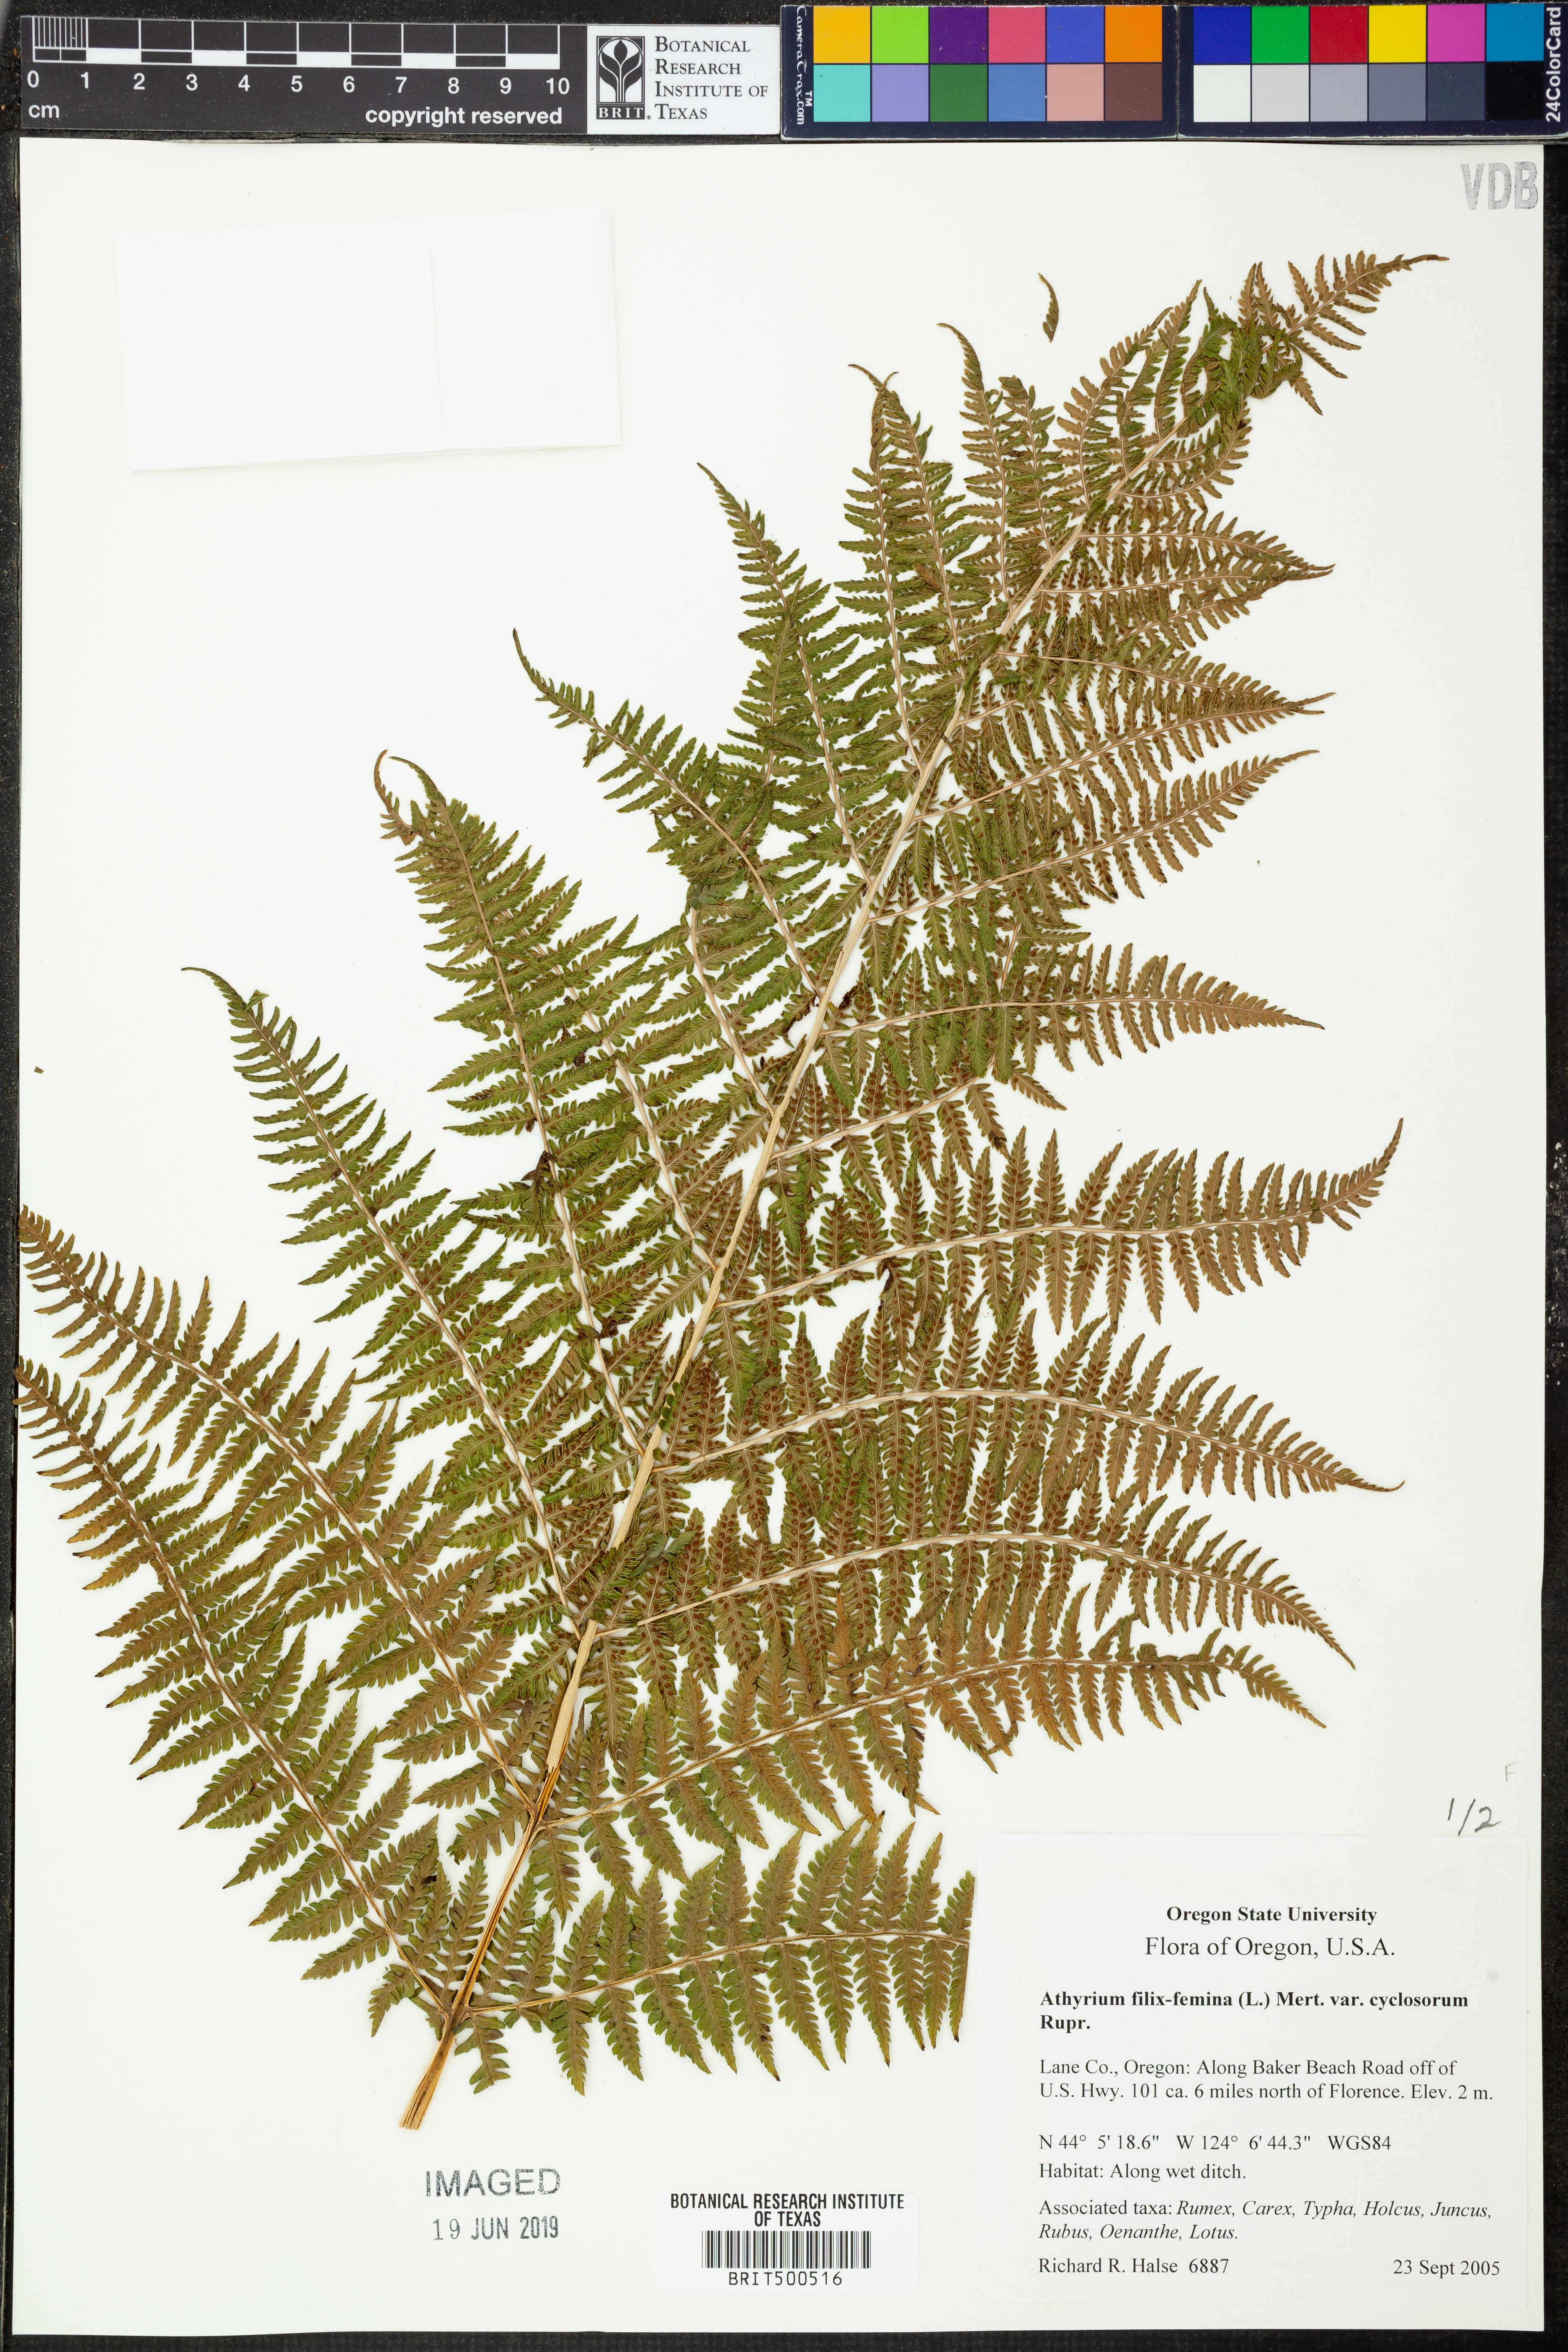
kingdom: Plantae
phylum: Tracheophyta
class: Polypodiopsida
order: Polypodiales
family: Athyriaceae
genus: Athyrium
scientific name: Athyrium filix-femina
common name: Lady fern
